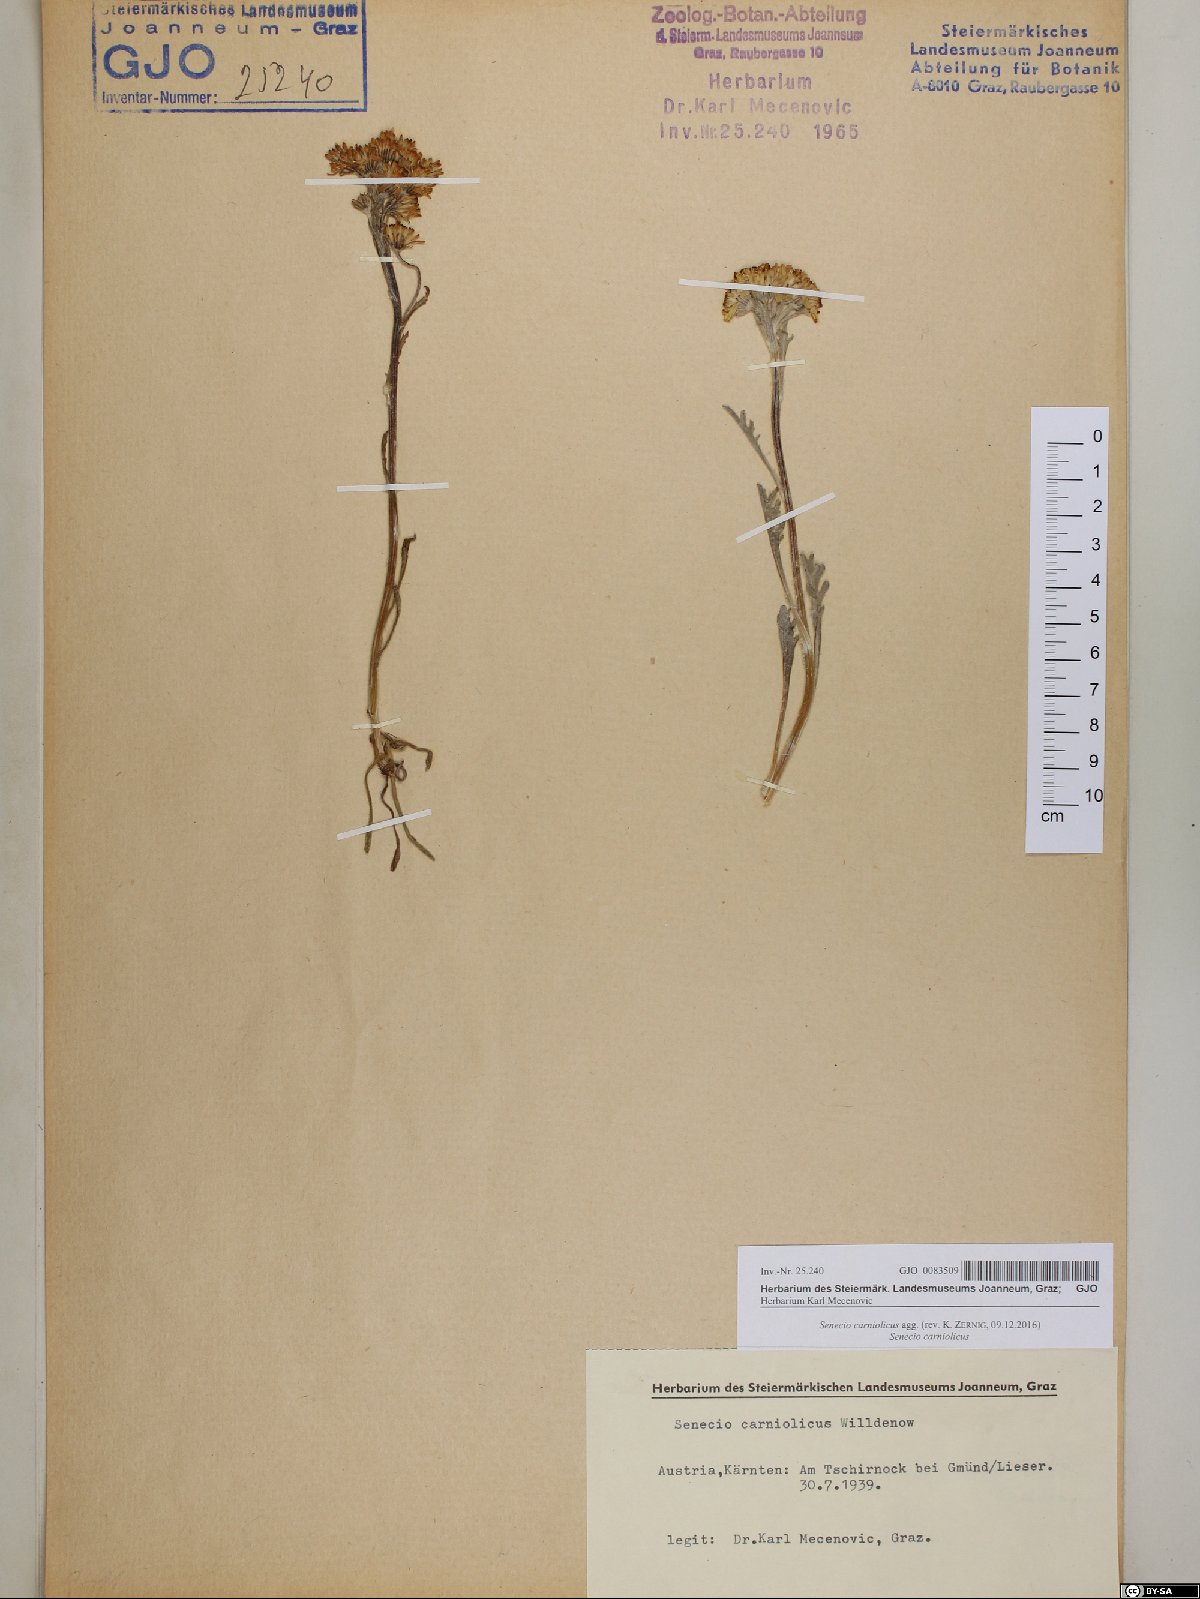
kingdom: Plantae
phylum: Tracheophyta
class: Magnoliopsida
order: Asterales
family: Asteraceae
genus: Jacobaea
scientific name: Jacobaea carniolica
